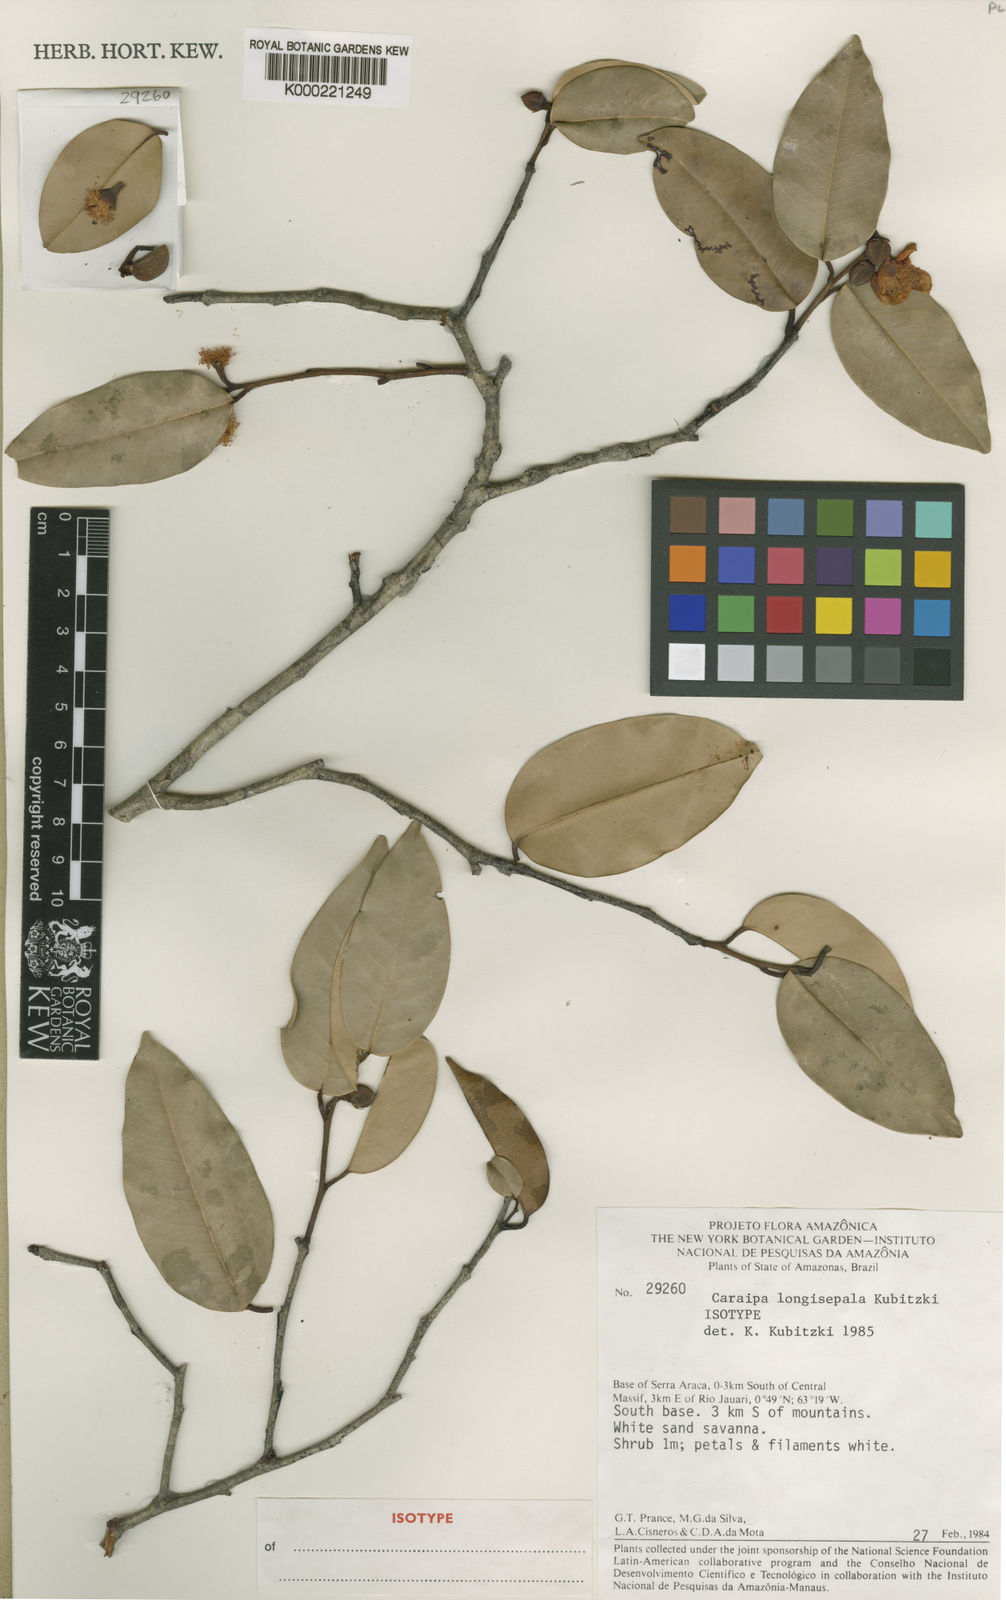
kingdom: Plantae
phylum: Tracheophyta
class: Magnoliopsida
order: Malpighiales
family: Calophyllaceae
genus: Caraipa
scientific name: Caraipa longisepala
